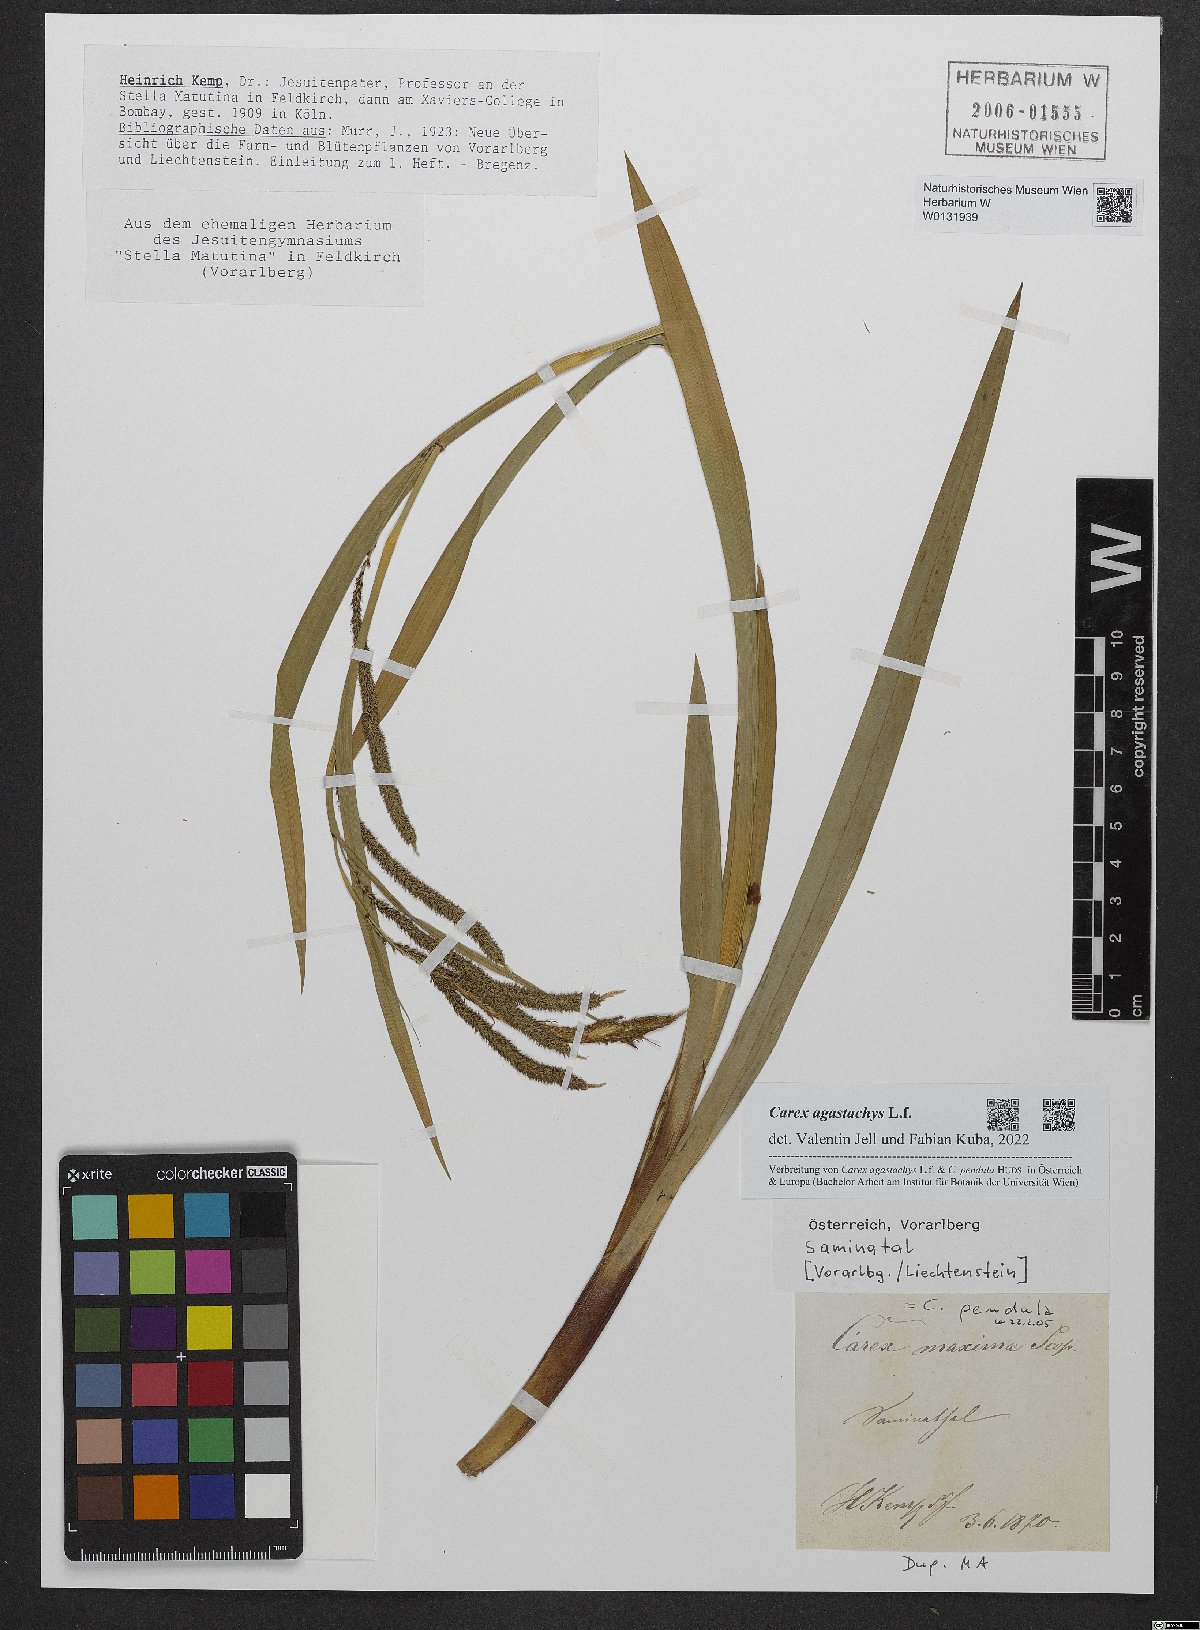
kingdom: Plantae
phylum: Tracheophyta
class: Liliopsida
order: Poales
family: Cyperaceae
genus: Carex
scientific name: Carex agastachys
